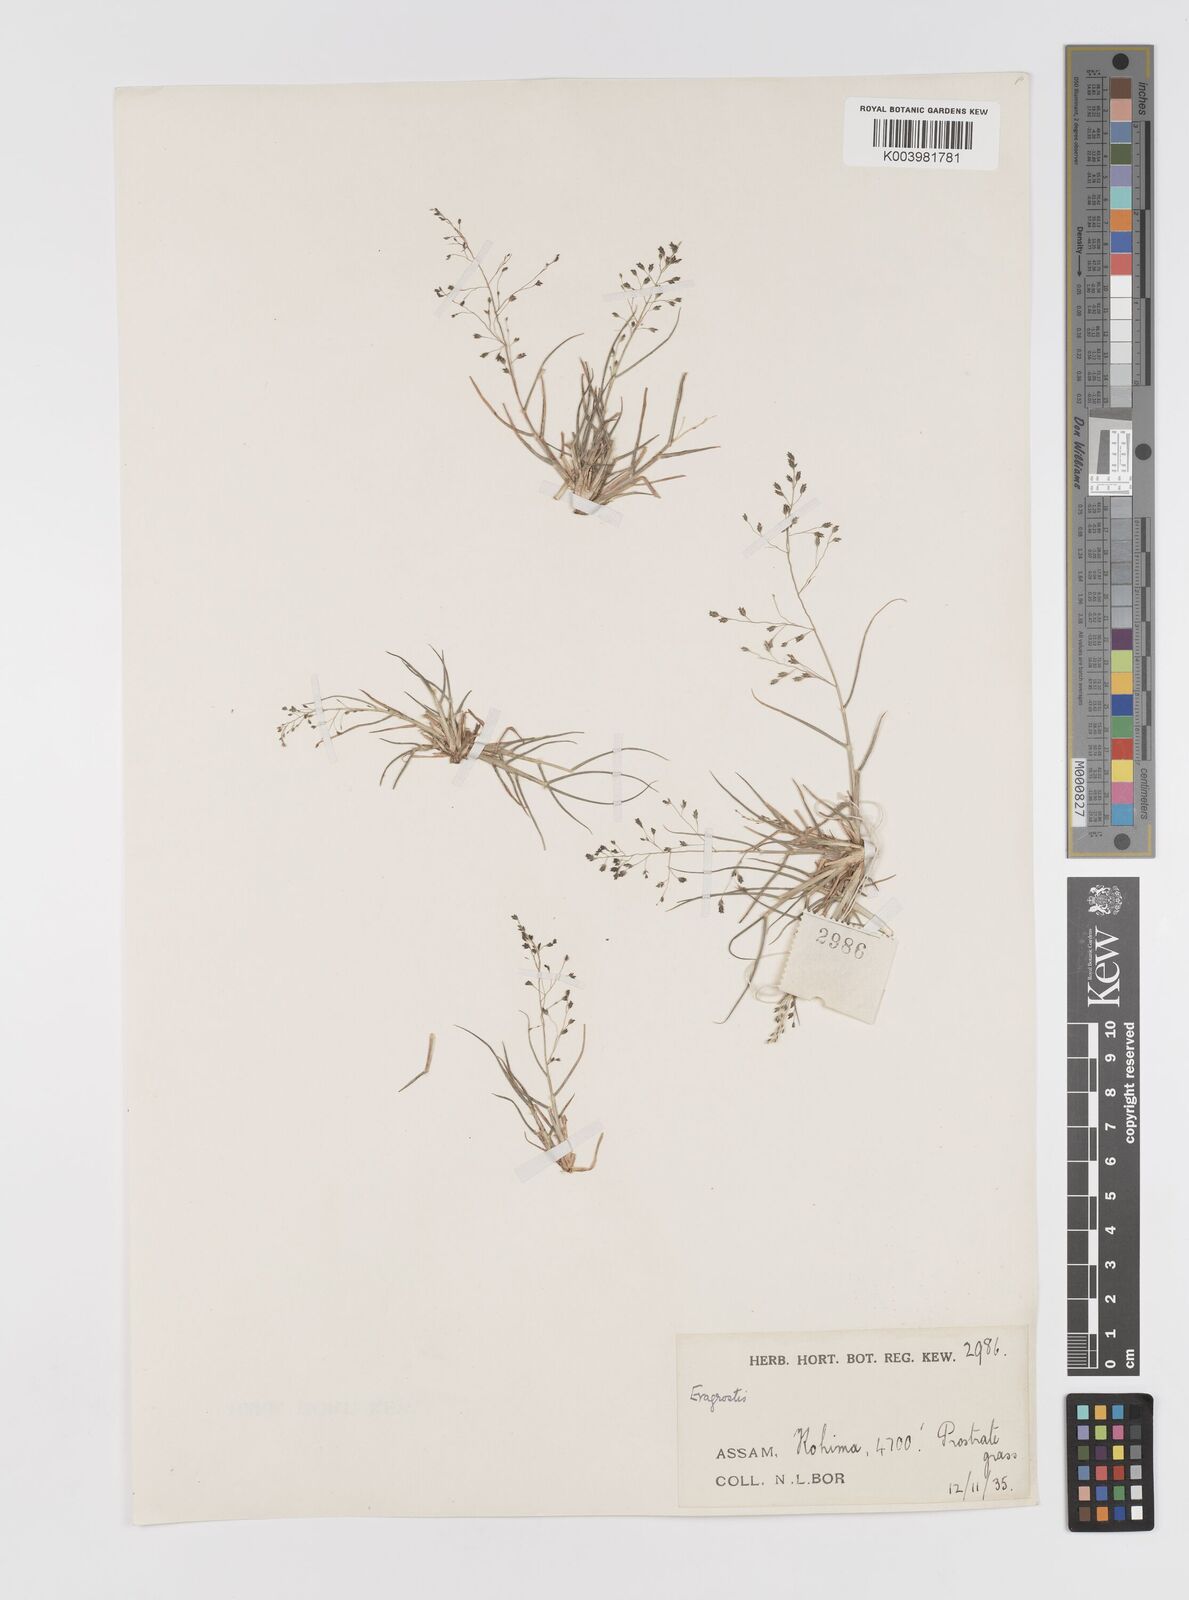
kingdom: Plantae
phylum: Tracheophyta
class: Liliopsida
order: Poales
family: Poaceae
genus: Eragrostis
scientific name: Eragrostis nigra
